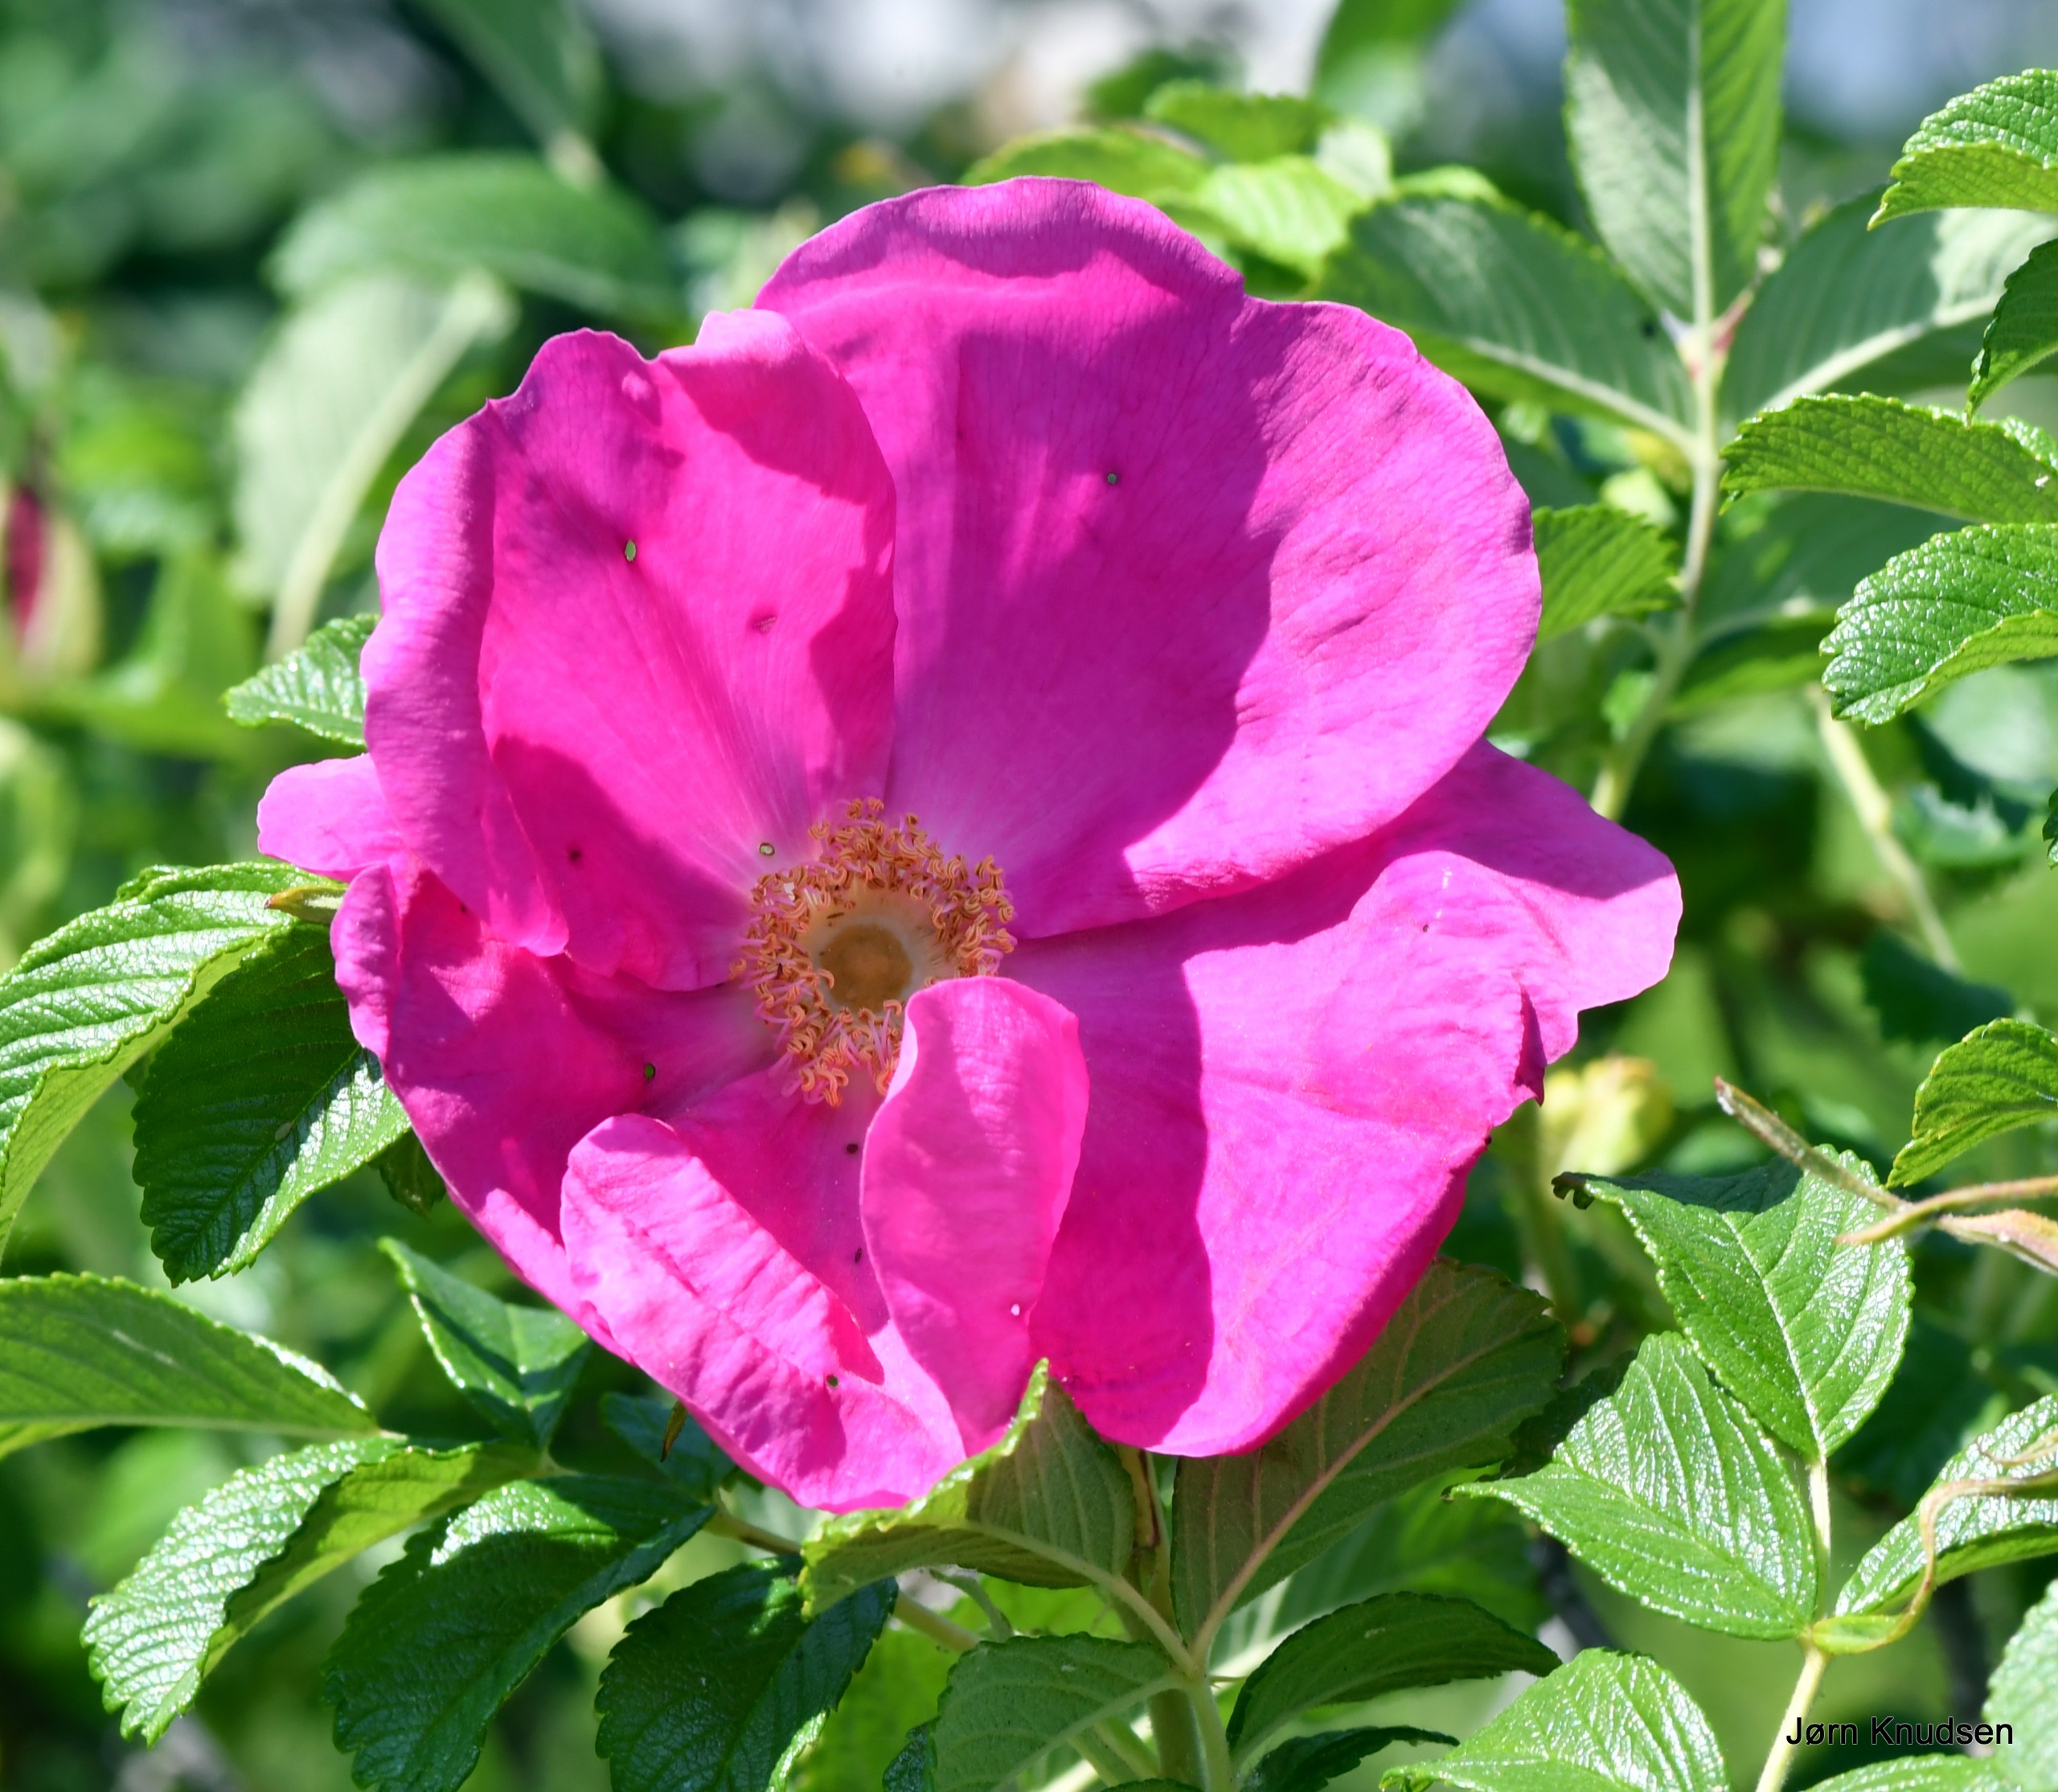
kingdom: Plantae
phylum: Tracheophyta
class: Magnoliopsida
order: Rosales
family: Rosaceae
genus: Rosa
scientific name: Rosa rugosa
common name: Rynket rose
